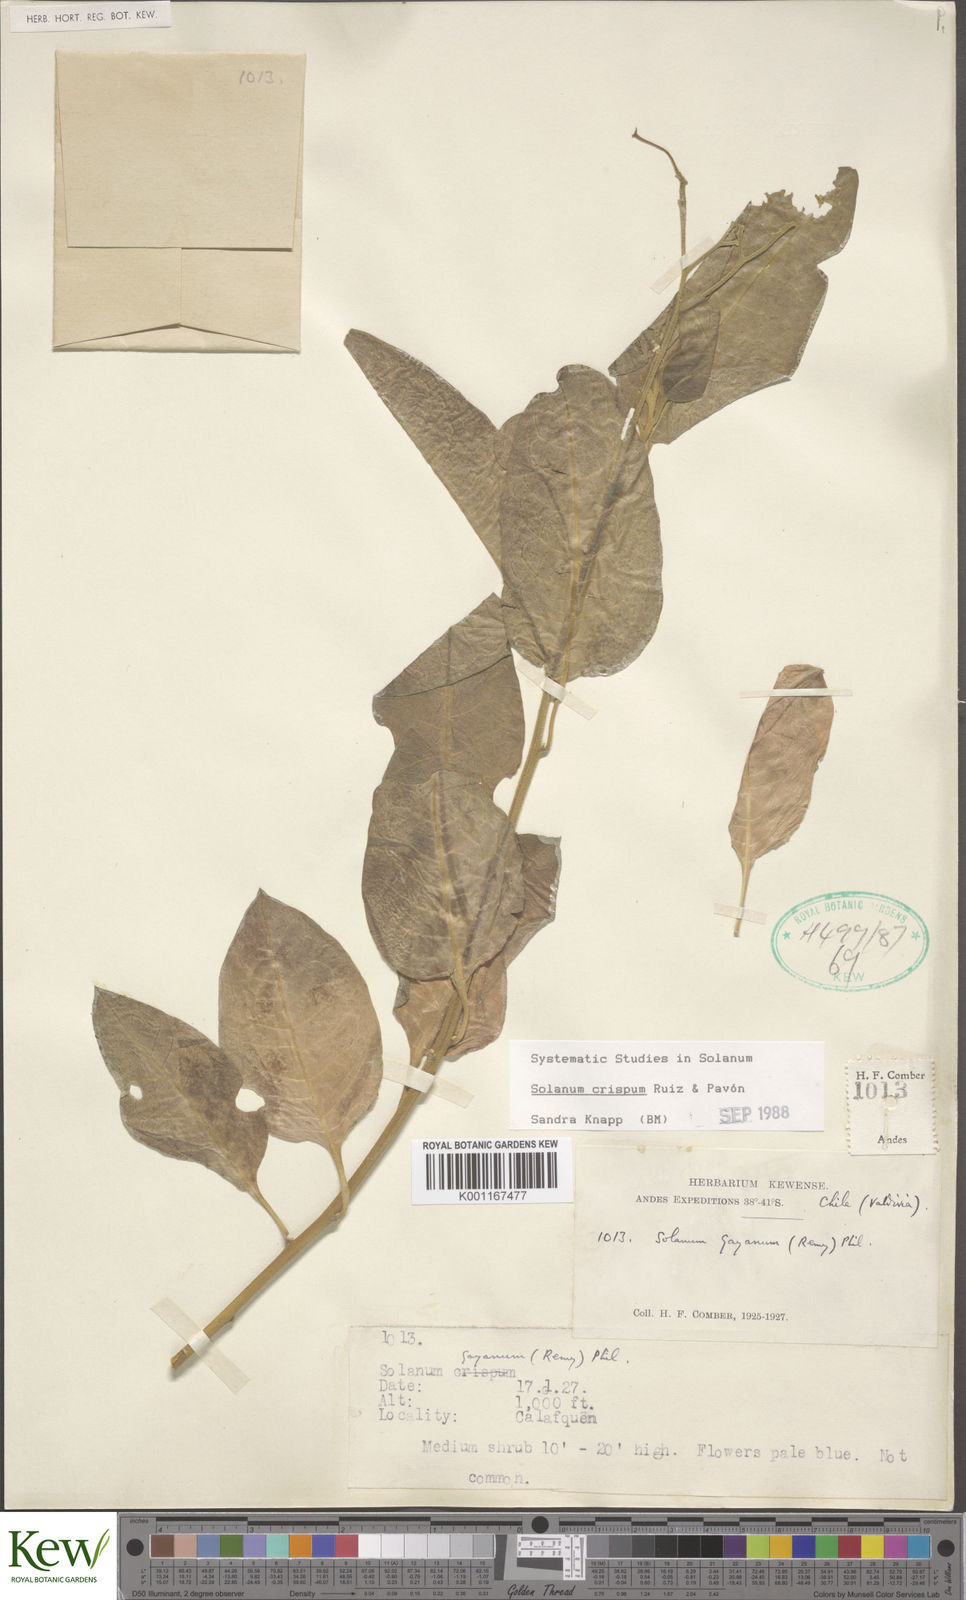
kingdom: Plantae
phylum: Tracheophyta
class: Magnoliopsida
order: Solanales
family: Solanaceae
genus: Solanum
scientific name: Solanum crispum
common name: Chilean nightshade
